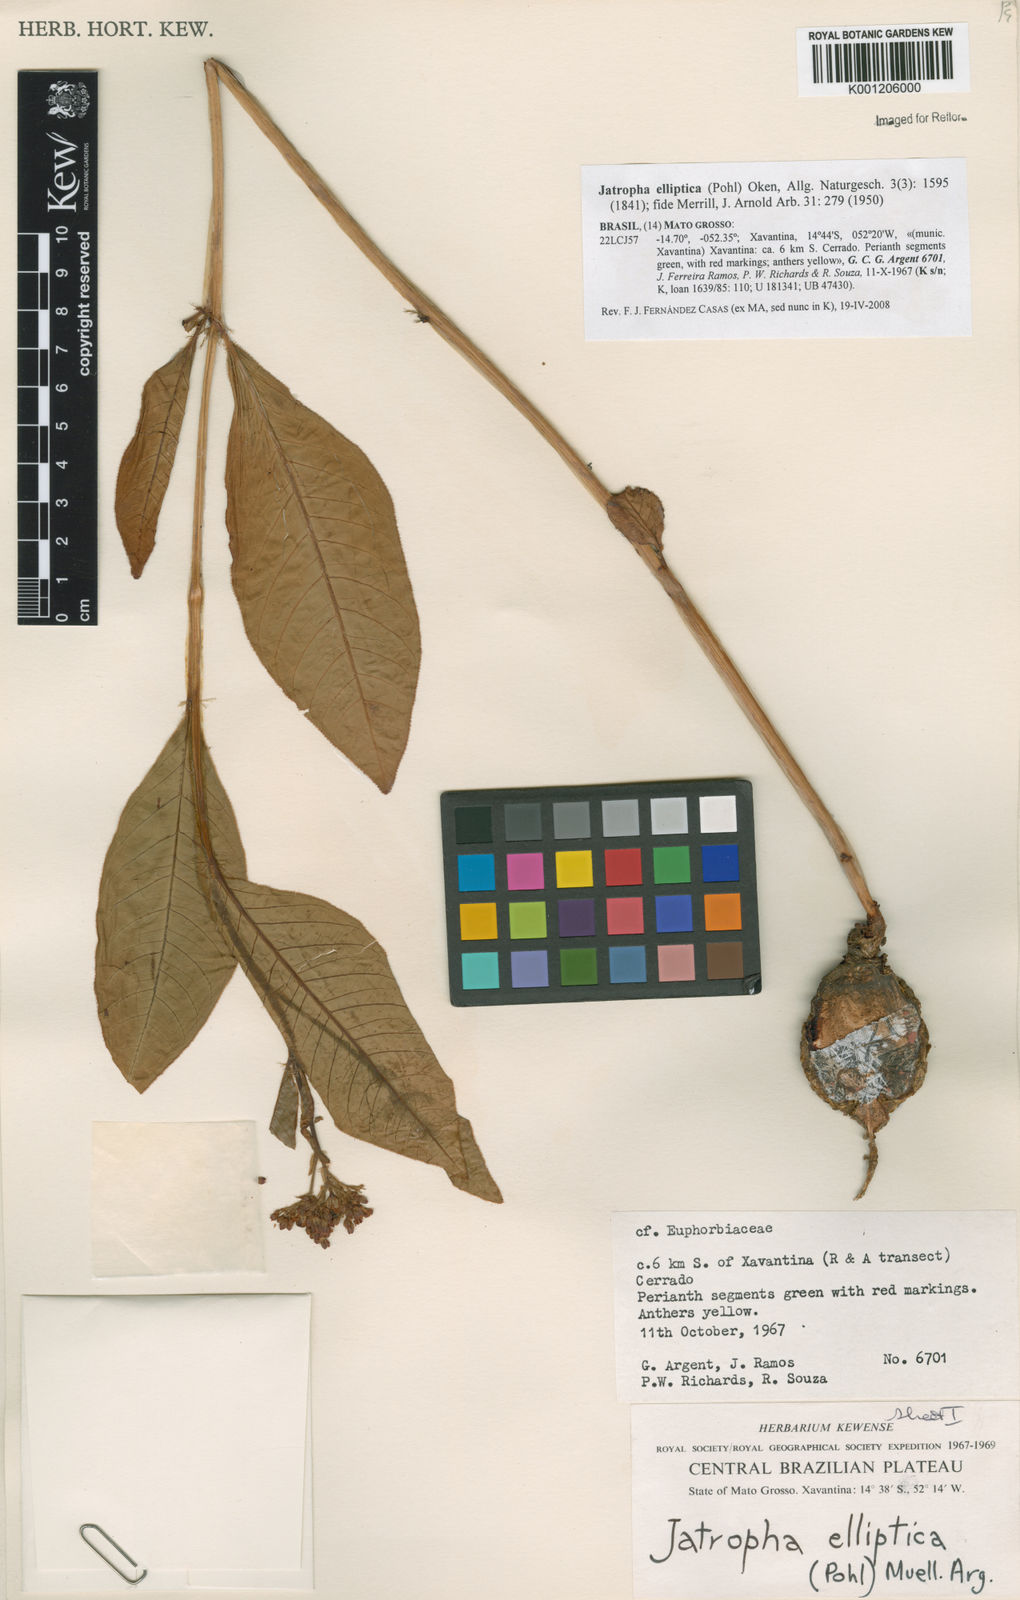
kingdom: Plantae
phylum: Tracheophyta
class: Magnoliopsida
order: Malpighiales
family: Euphorbiaceae
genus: Jatropha
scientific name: Jatropha elliptica
